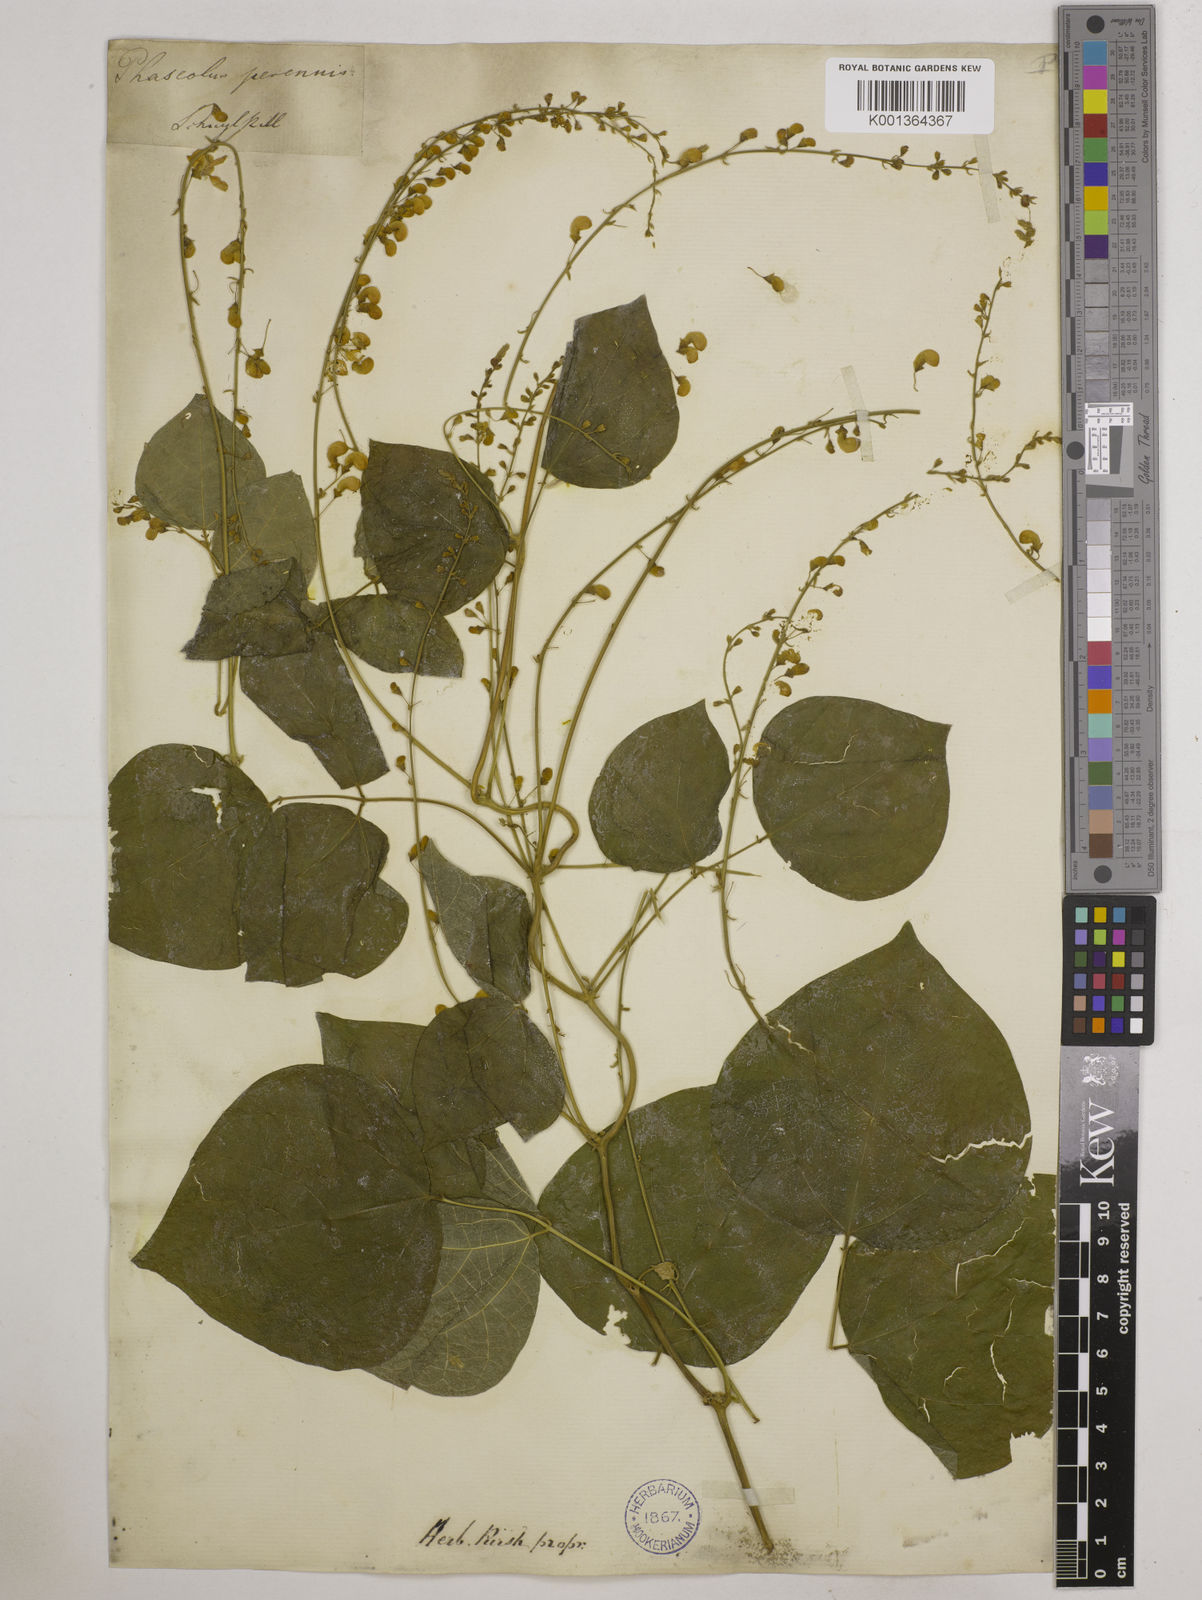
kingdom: Plantae
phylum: Tracheophyta
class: Magnoliopsida
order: Fabales
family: Fabaceae
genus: Phaseolus
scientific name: Phaseolus
